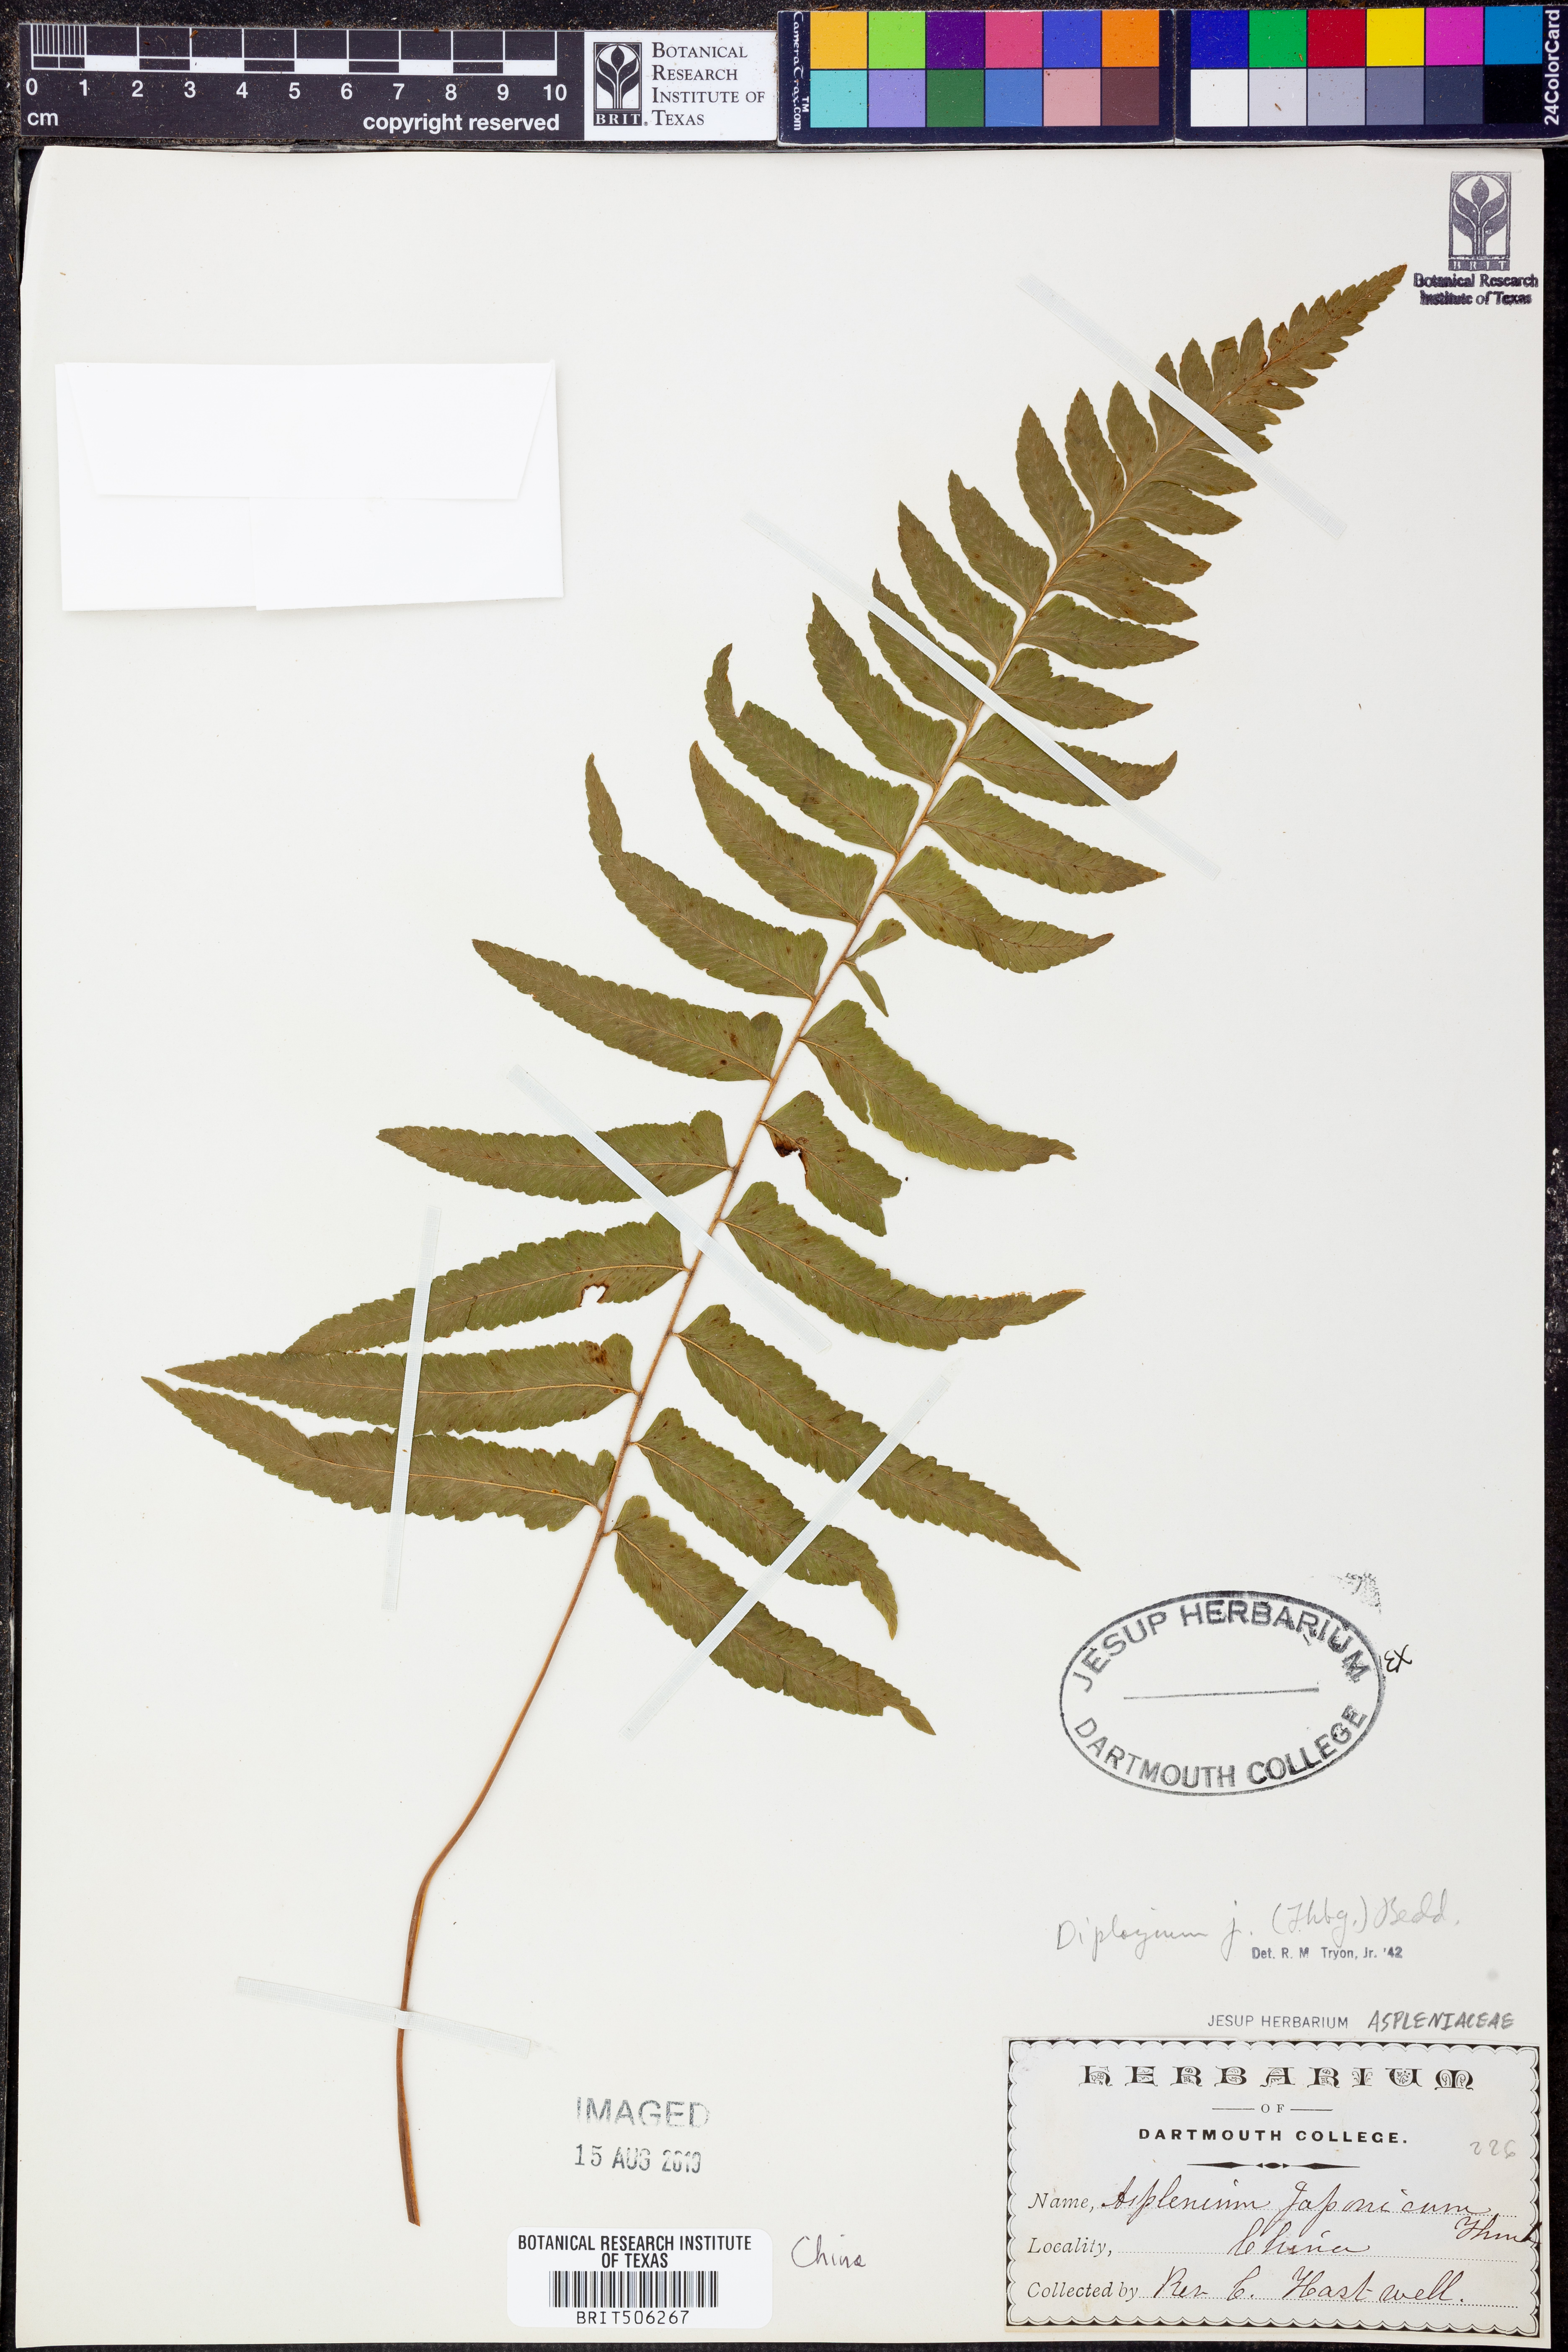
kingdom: Plantae
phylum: Tracheophyta
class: Polypodiopsida
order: Polypodiales
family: Athyriaceae
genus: Diplazium
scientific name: Diplazium japonicum
